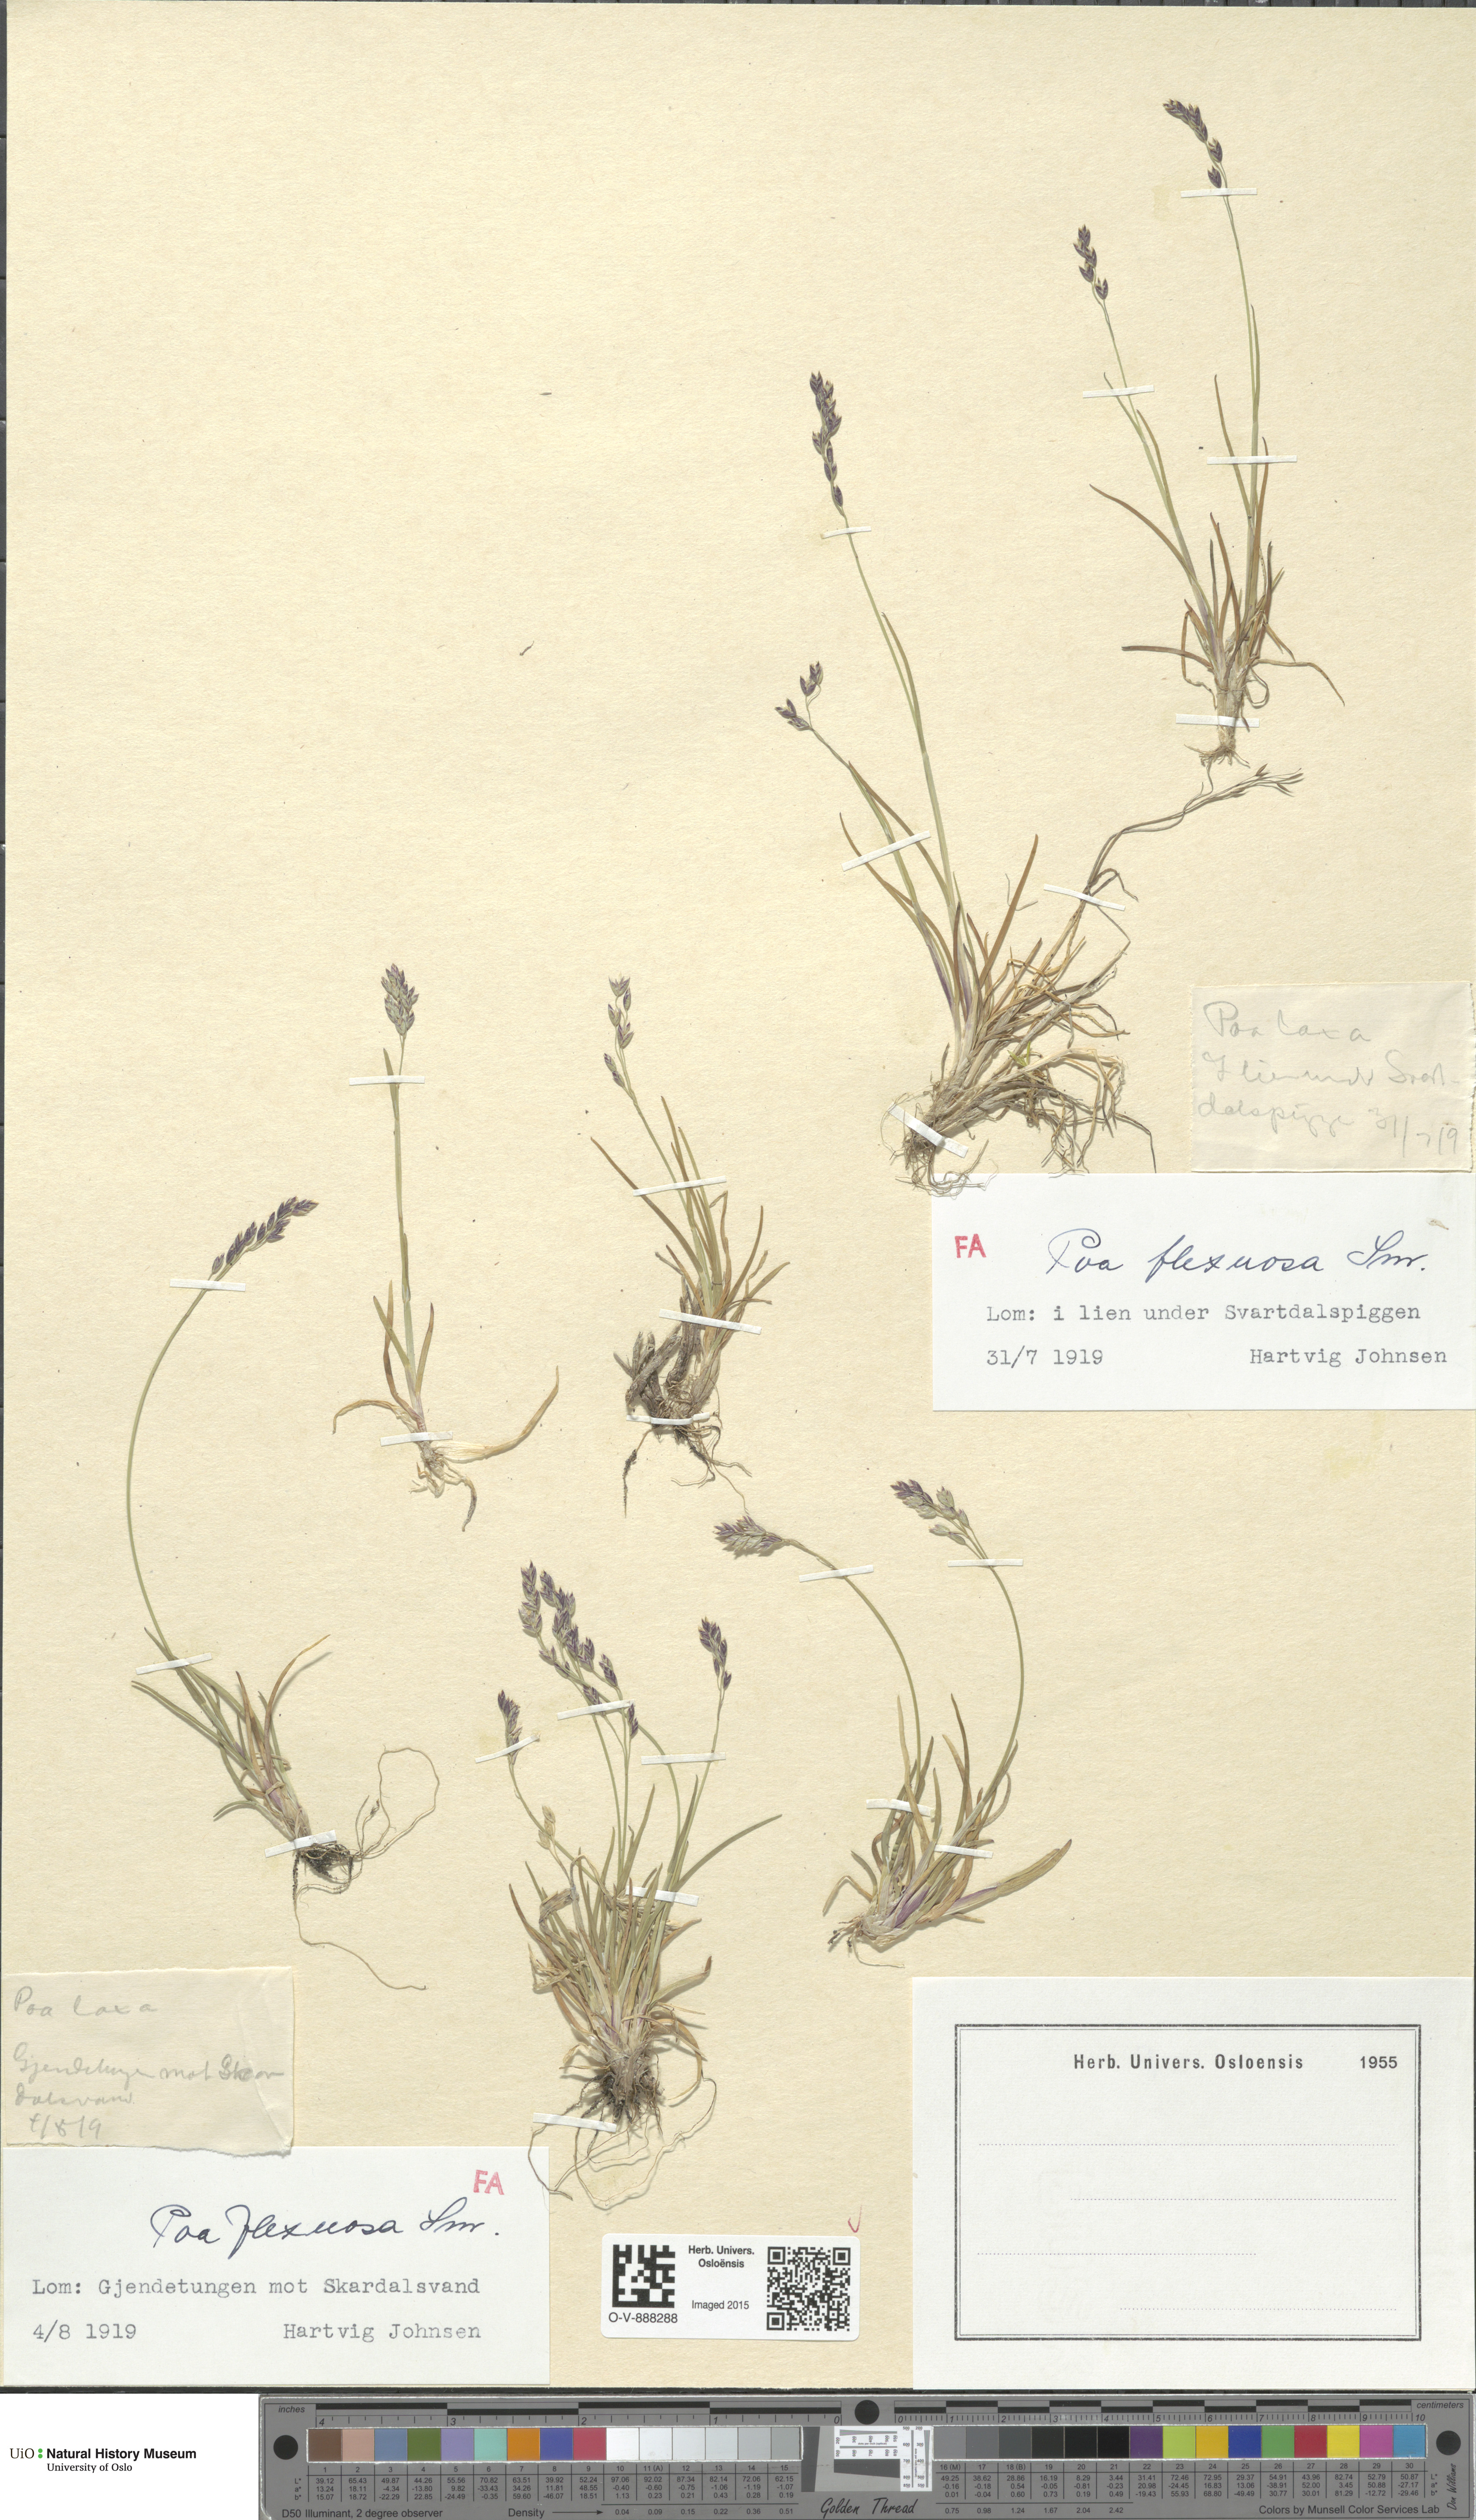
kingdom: Plantae
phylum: Tracheophyta
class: Liliopsida
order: Poales
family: Poaceae
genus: Poa
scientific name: Poa flexuosa
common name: Wavy meadow-grass
